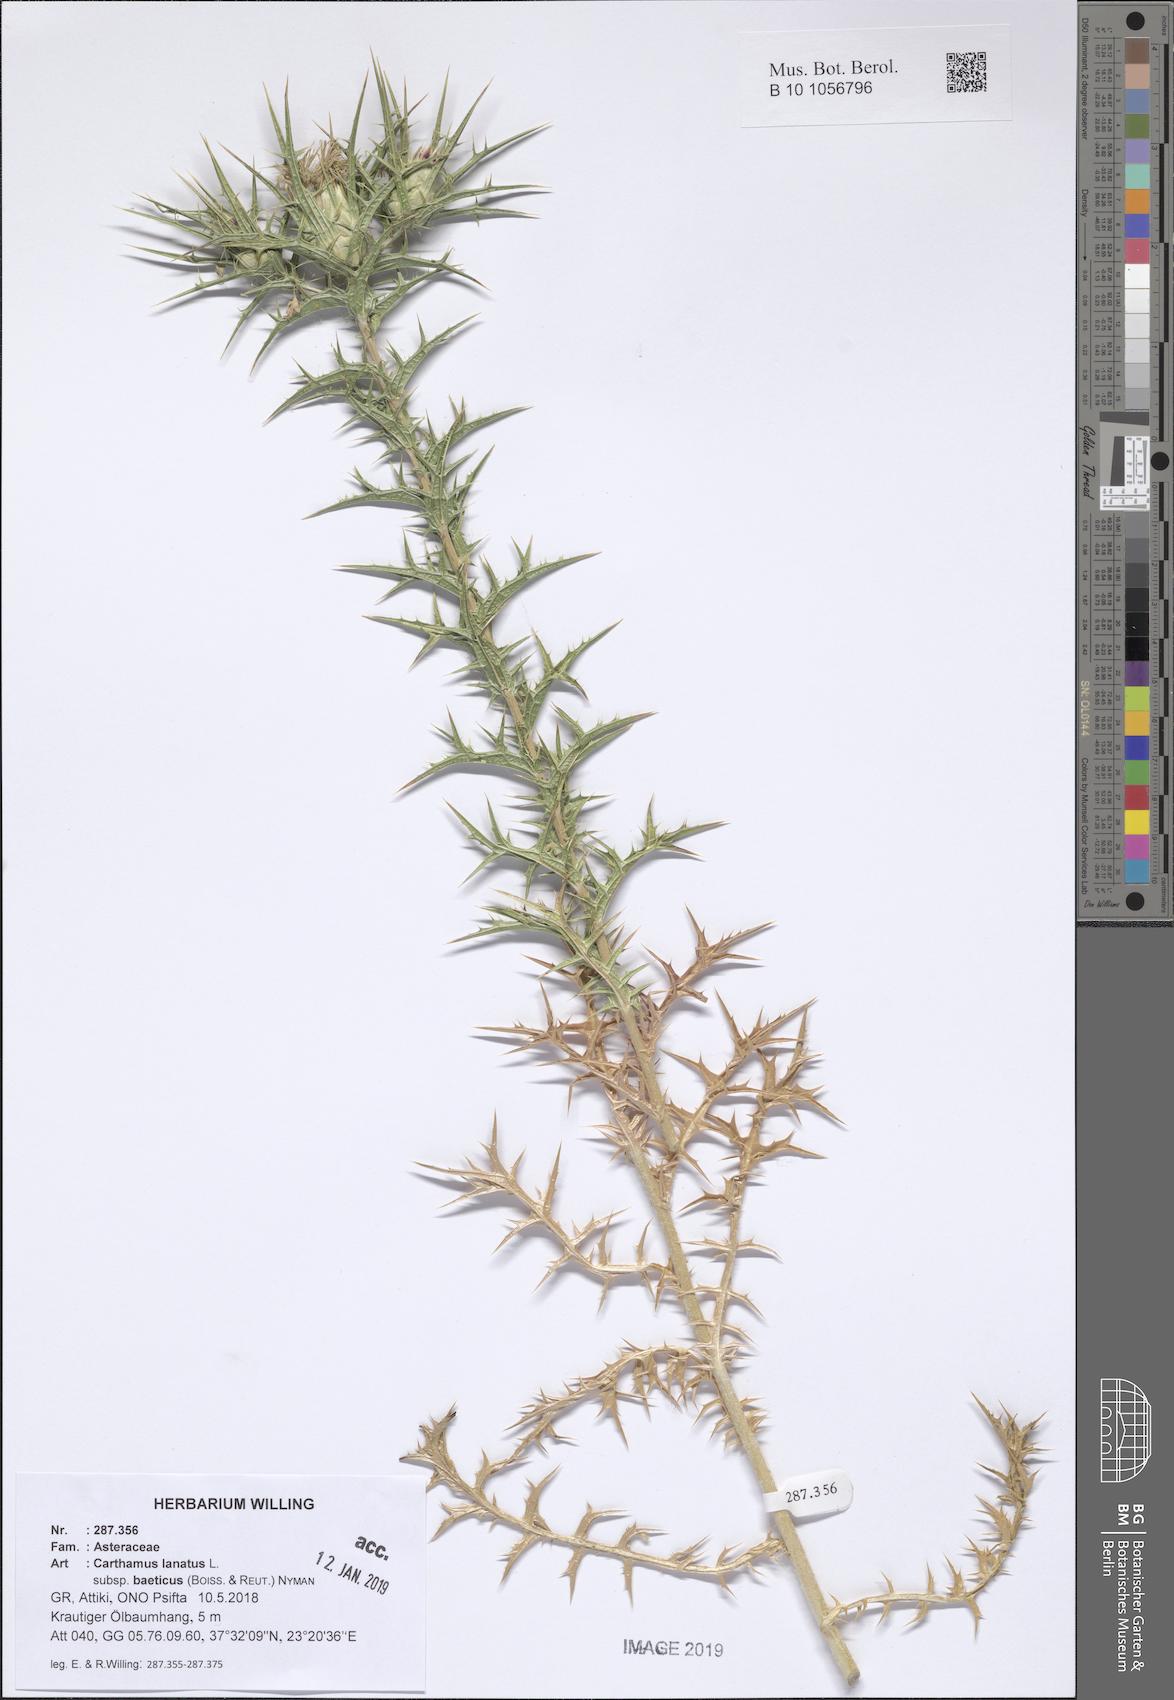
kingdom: Plantae
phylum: Tracheophyta
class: Magnoliopsida
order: Asterales
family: Asteraceae
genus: Carthamus
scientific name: Carthamus creticus
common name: Smooth distaff thistle
